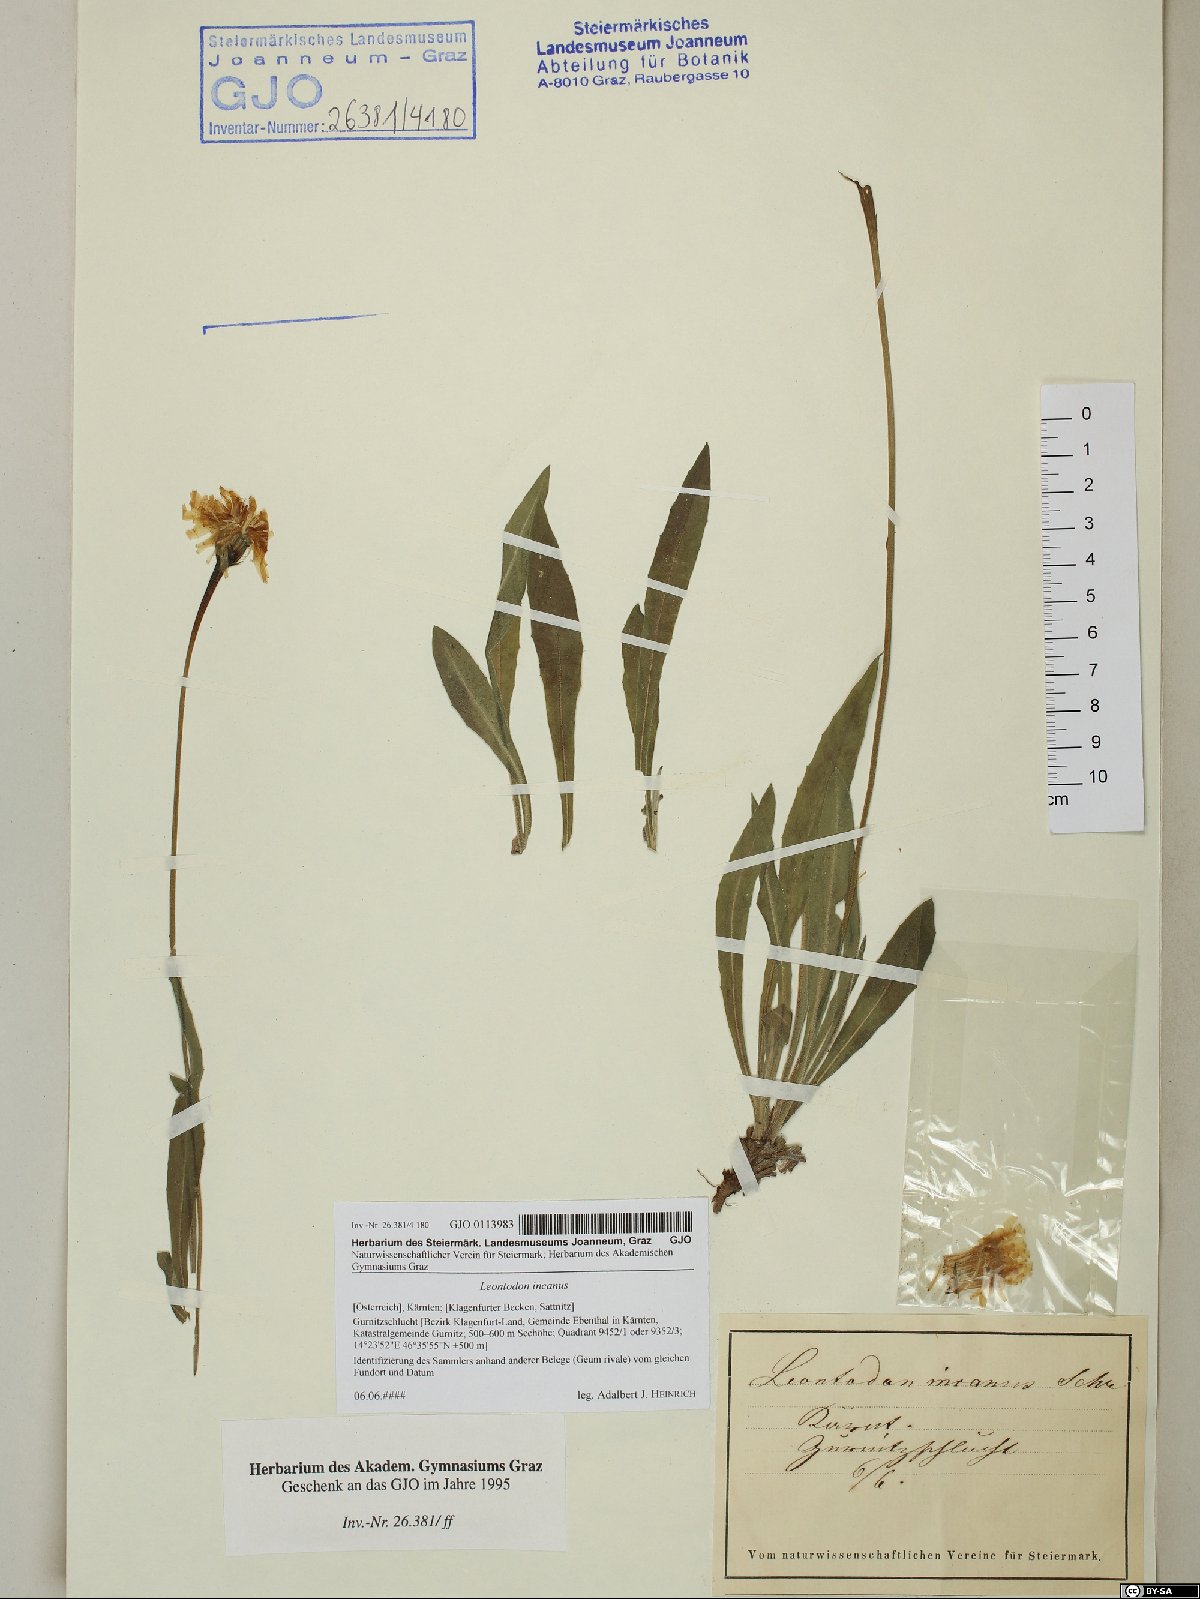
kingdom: Plantae
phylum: Tracheophyta
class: Magnoliopsida
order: Asterales
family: Asteraceae
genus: Leontodon
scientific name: Leontodon incanus
